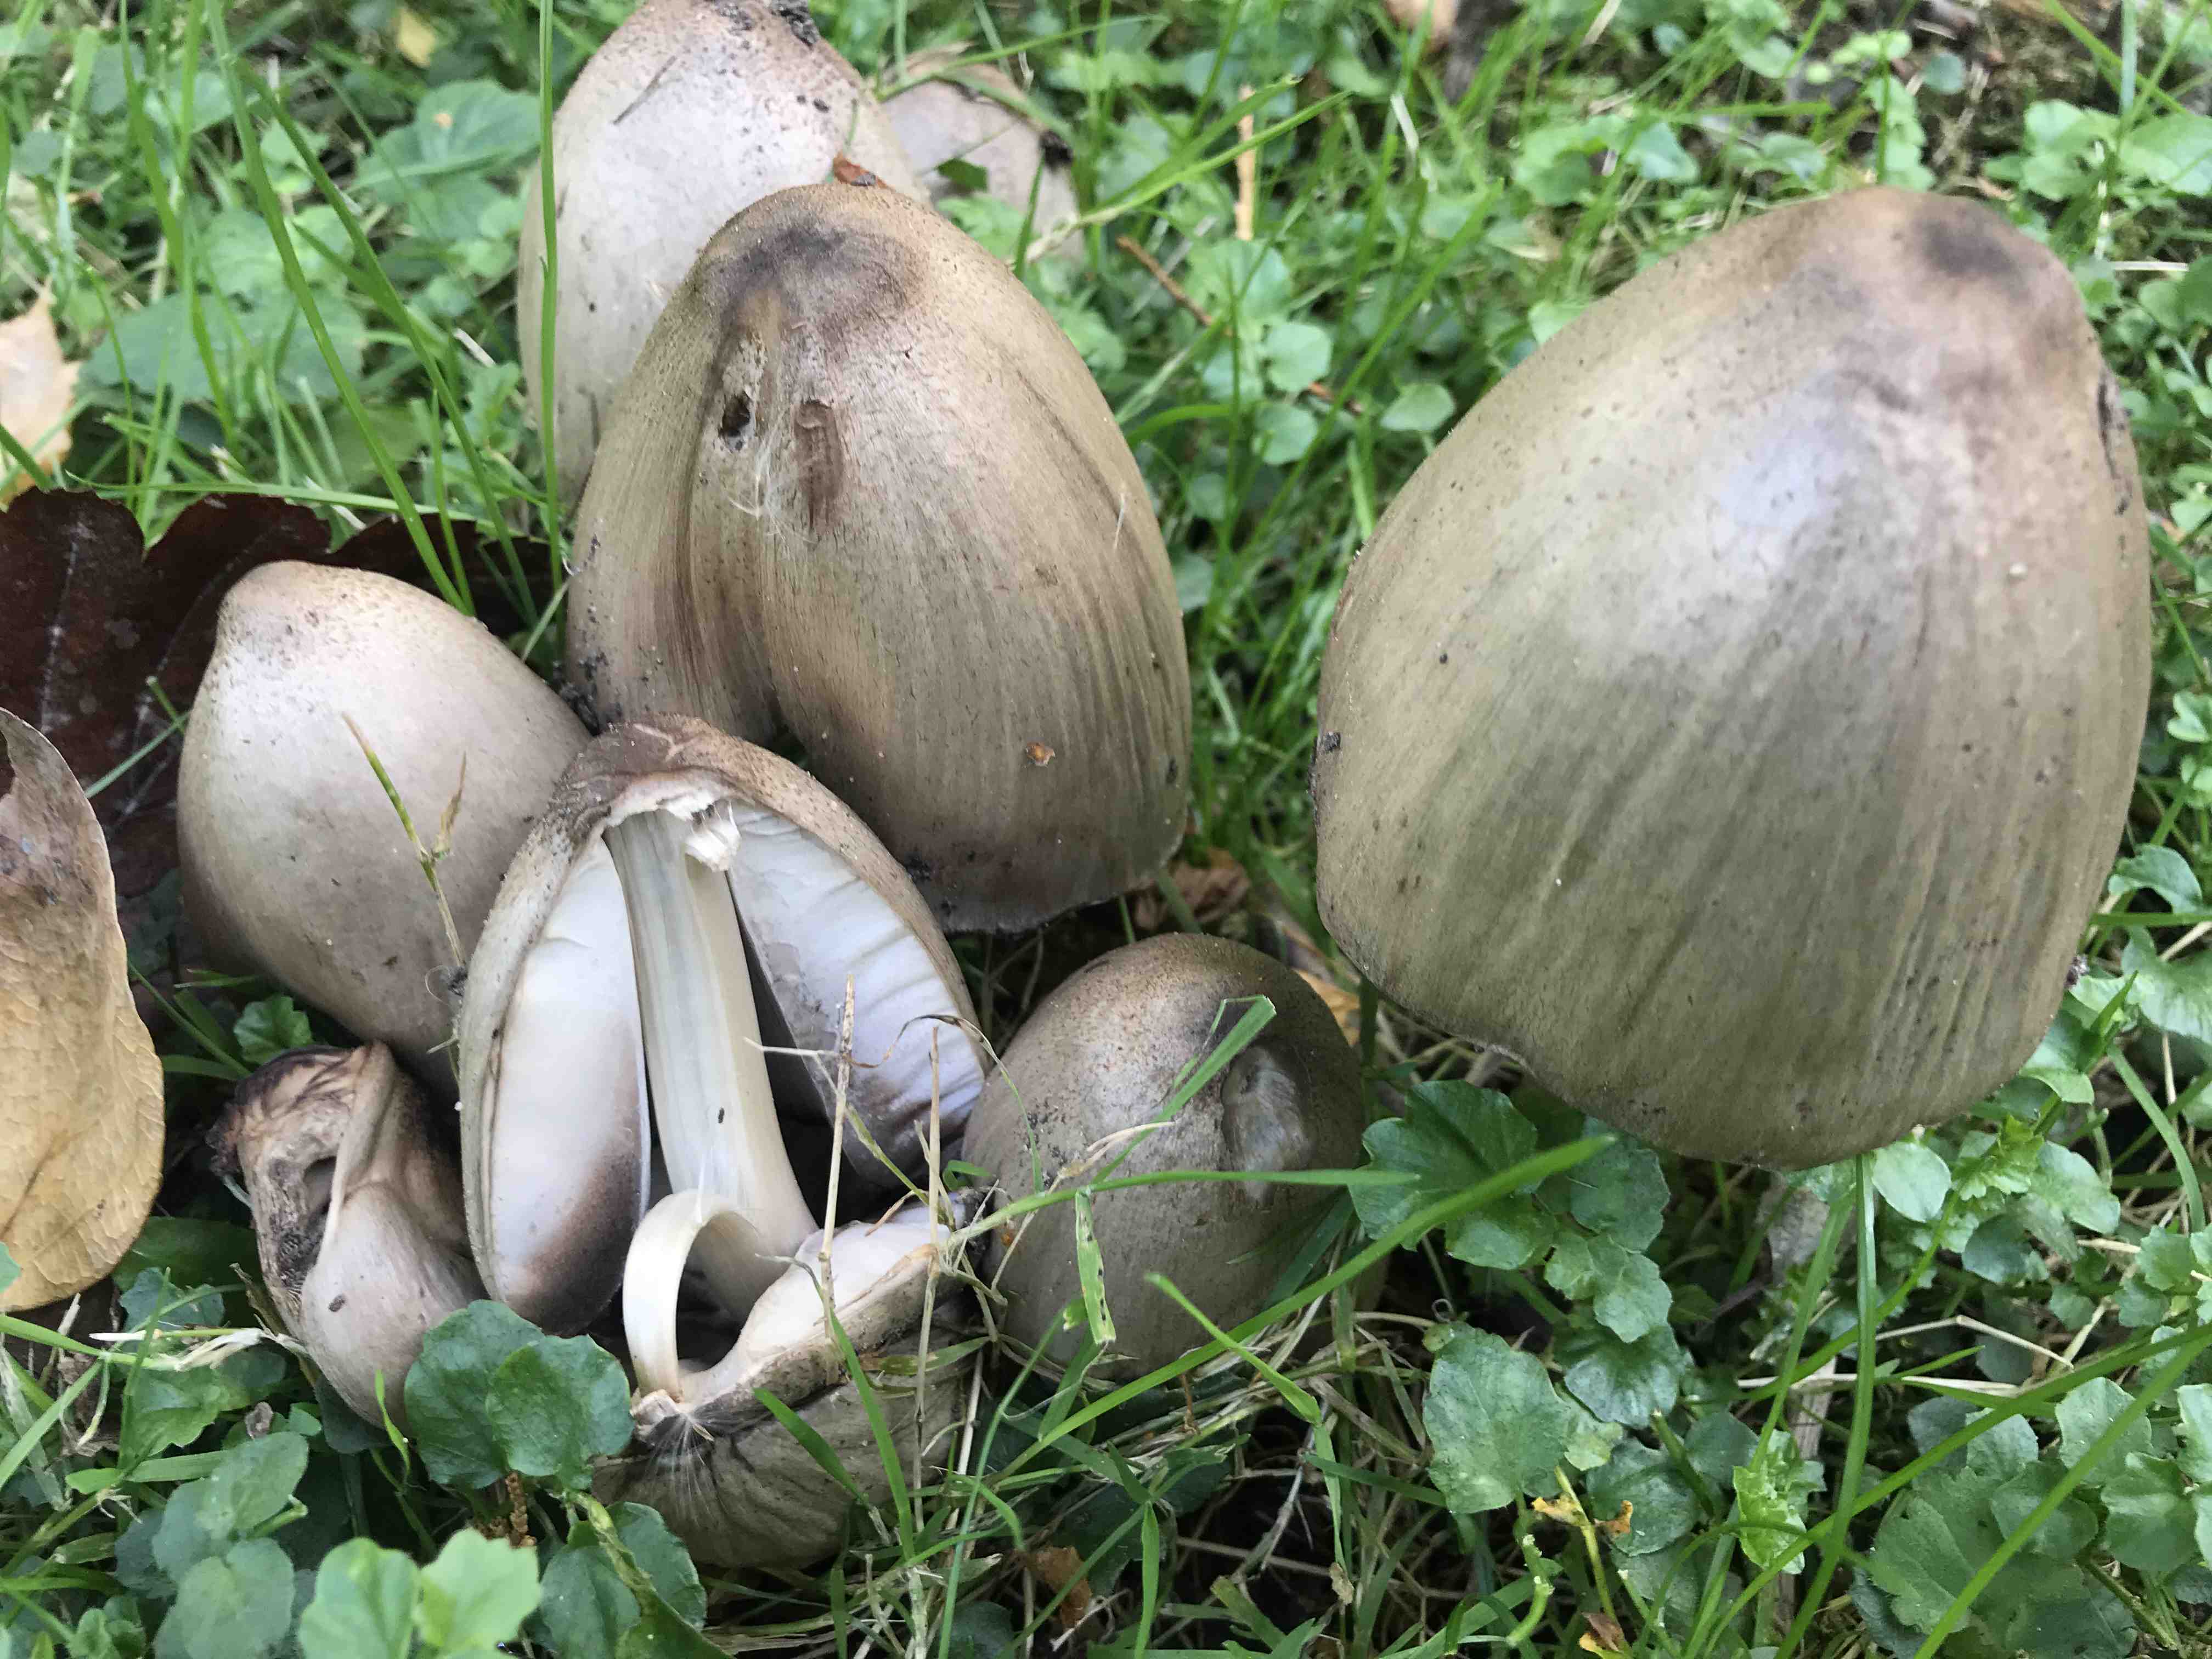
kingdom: Fungi
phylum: Basidiomycota
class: Agaricomycetes
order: Agaricales
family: Psathyrellaceae
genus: Coprinopsis
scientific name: Coprinopsis atramentaria
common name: almindelig blækhat
